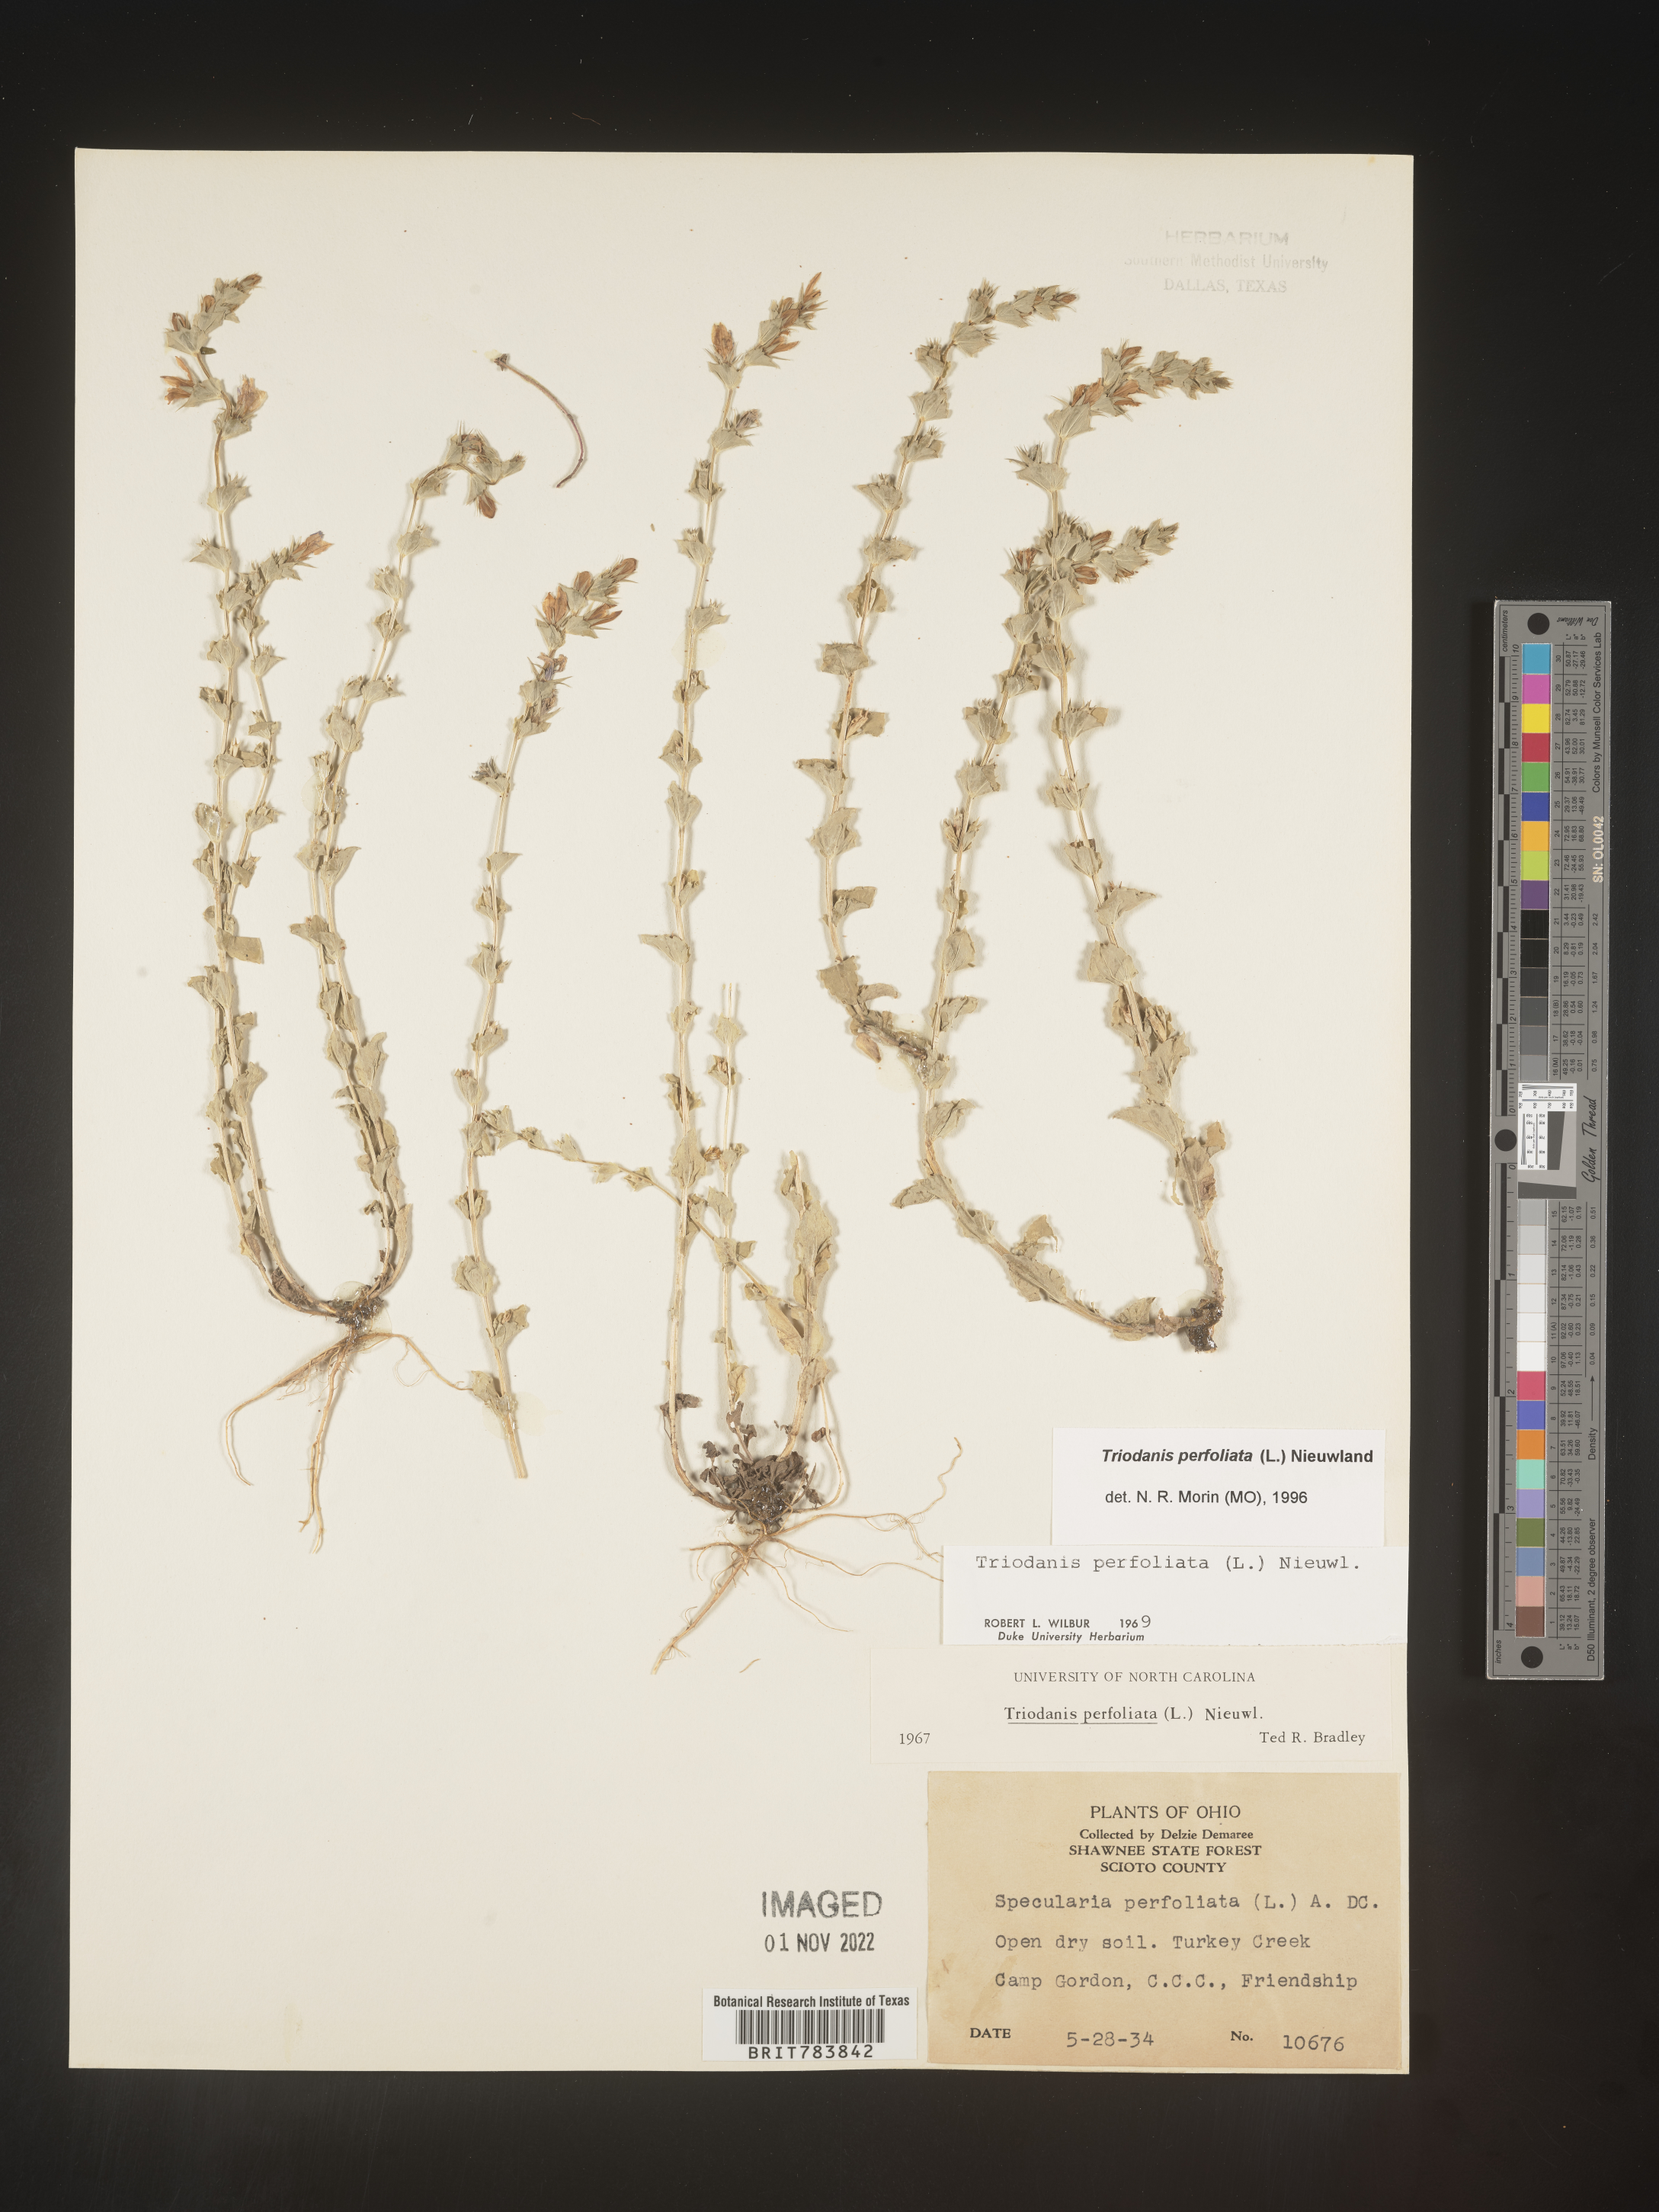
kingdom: Plantae
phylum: Tracheophyta
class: Magnoliopsida
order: Asterales
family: Campanulaceae
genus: Triodanis
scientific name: Triodanis perfoliata
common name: Clasping venus' looking-glass
